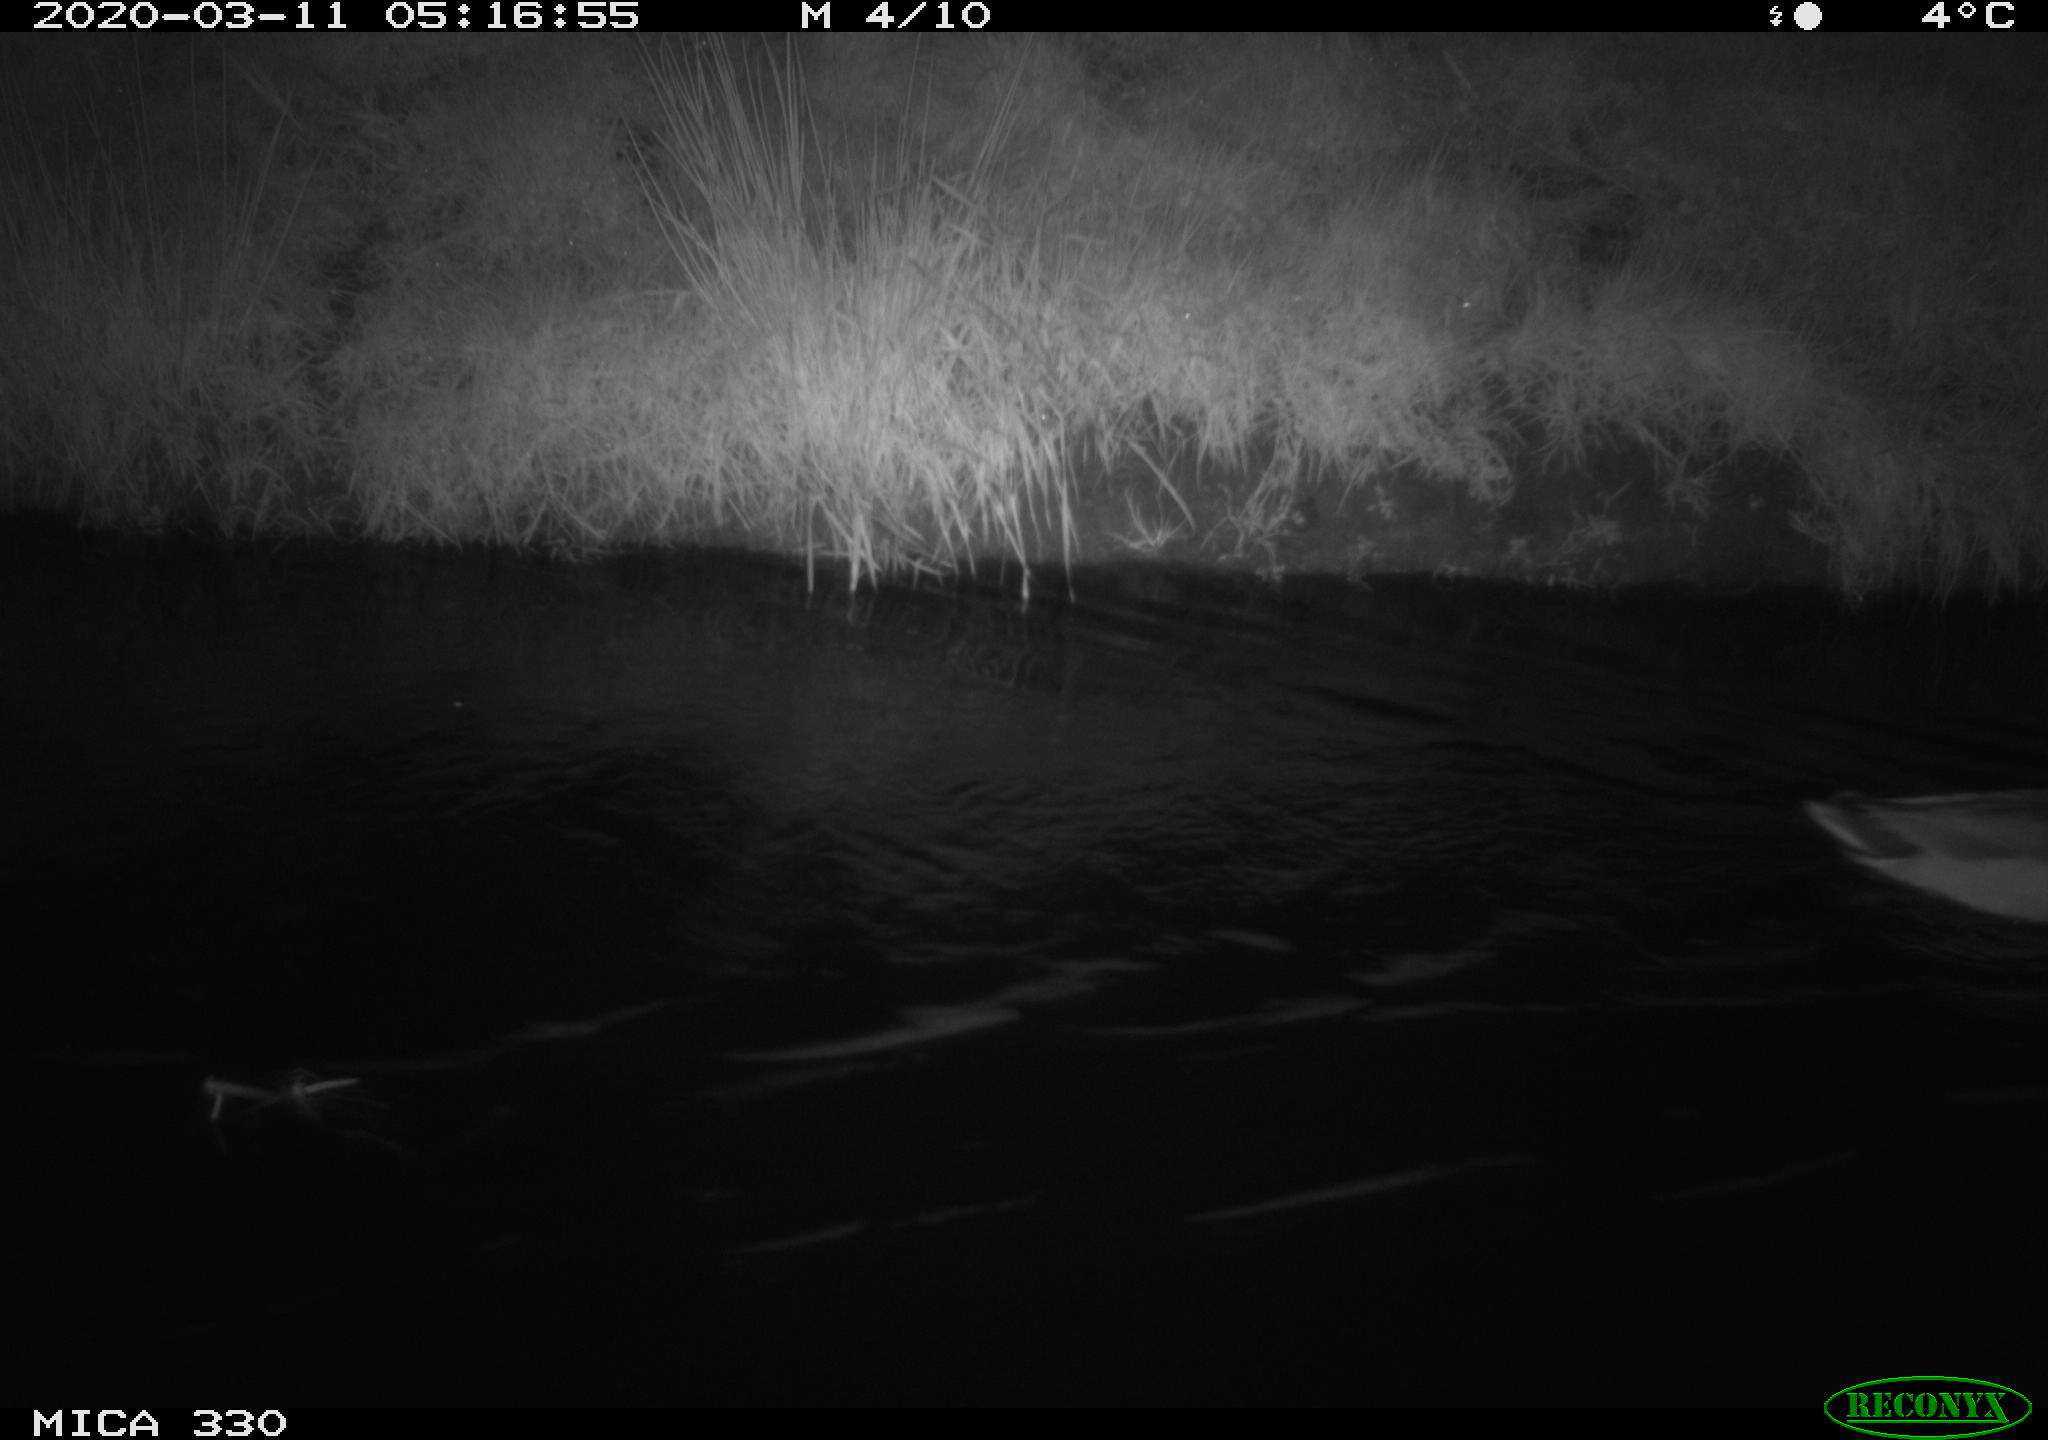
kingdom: Animalia
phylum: Chordata
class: Aves
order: Anseriformes
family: Anatidae
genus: Anas
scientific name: Anas platyrhynchos
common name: Mallard
